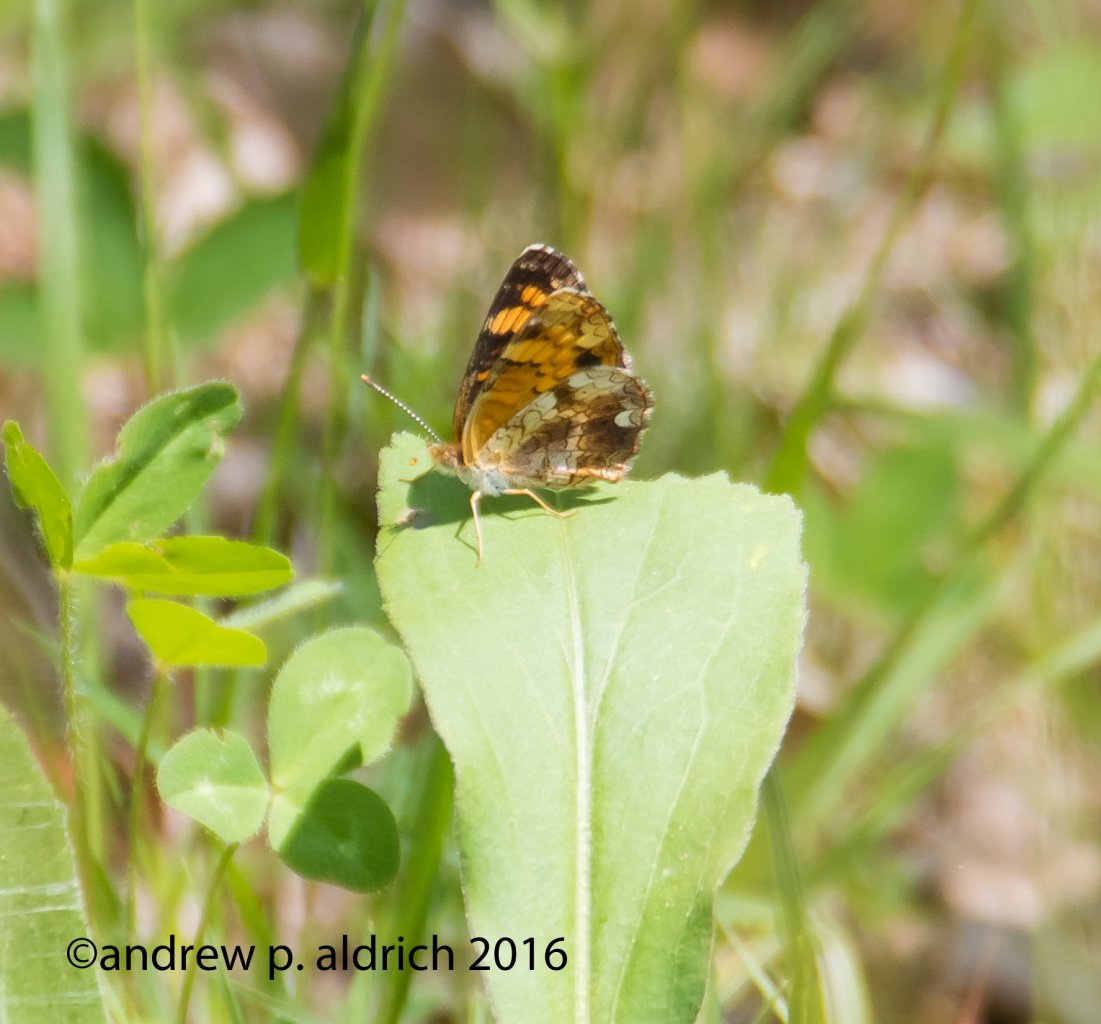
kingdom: Animalia
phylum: Arthropoda
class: Insecta
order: Lepidoptera
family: Nymphalidae
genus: Phyciodes
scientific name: Phyciodes
